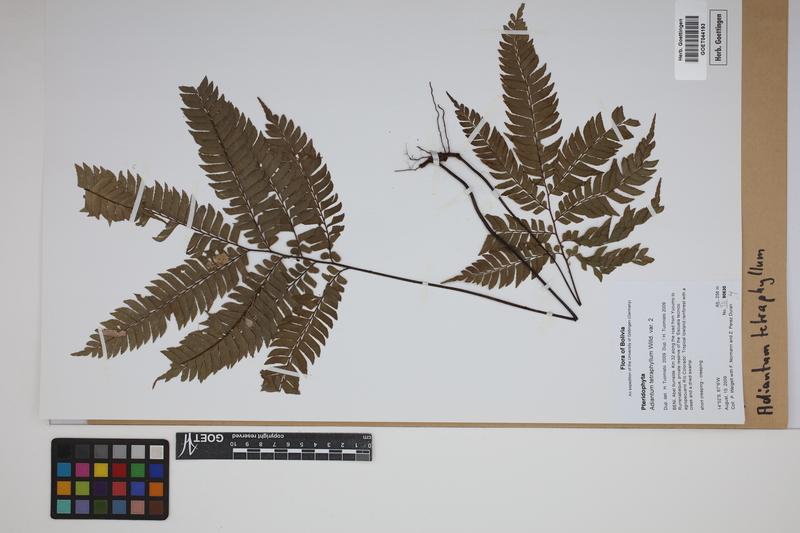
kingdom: Plantae
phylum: Tracheophyta
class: Polypodiopsida
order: Polypodiales
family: Pteridaceae
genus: Adiantum
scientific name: Adiantum tetraphyllum
